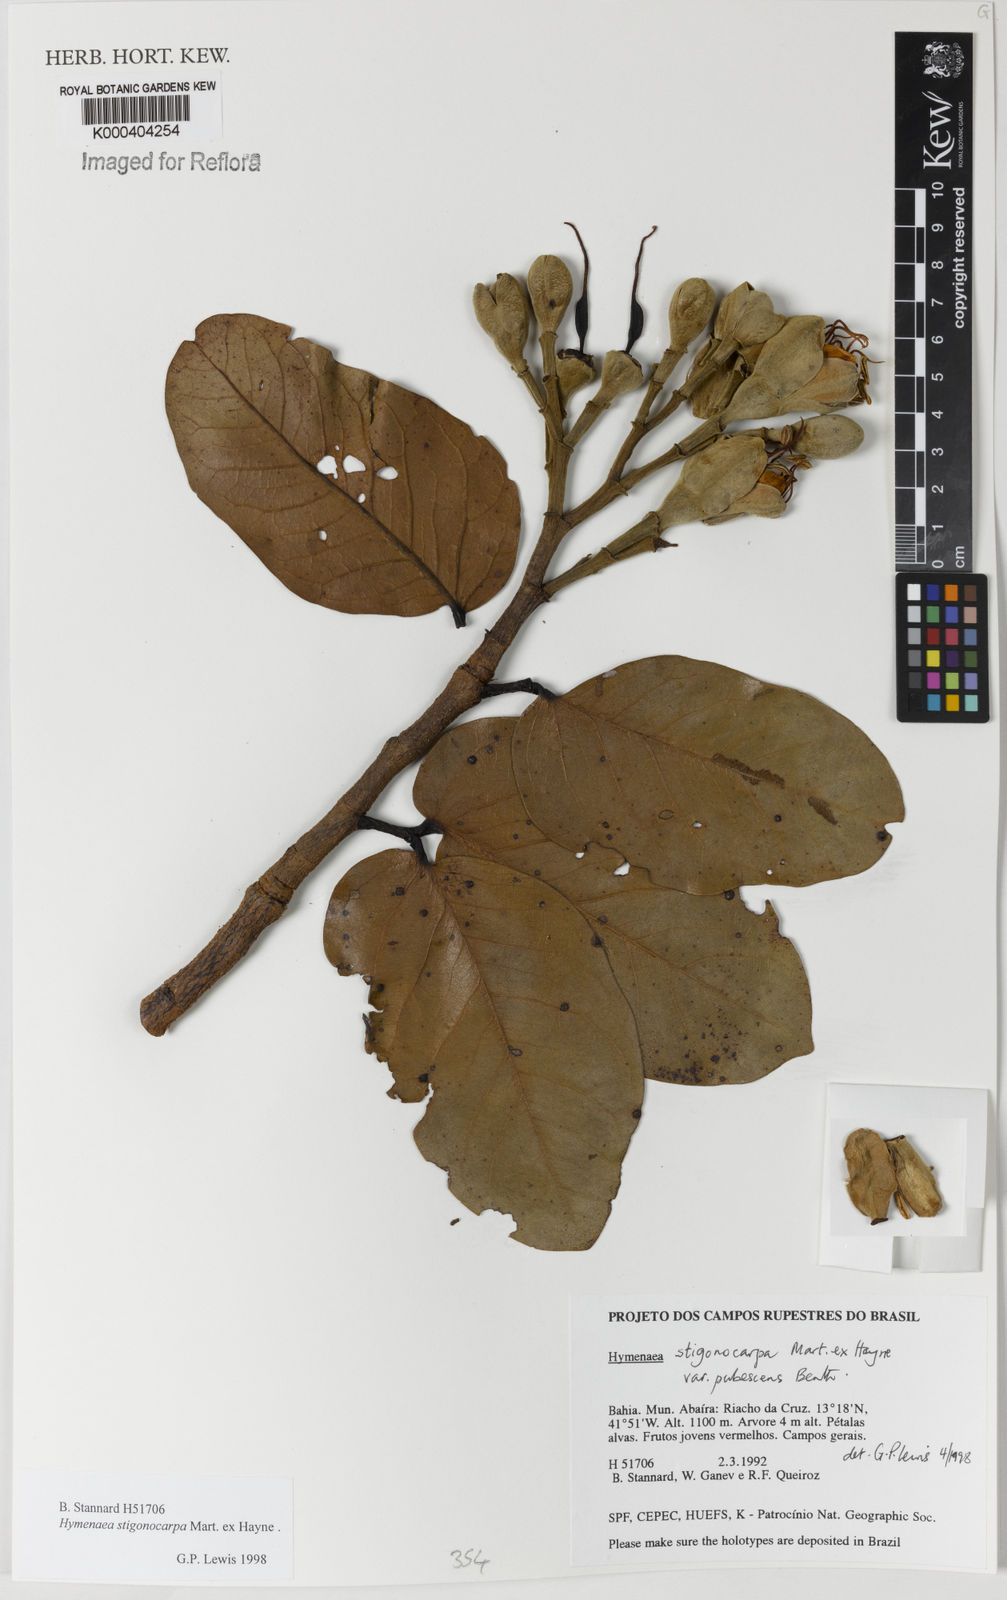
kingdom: Plantae
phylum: Tracheophyta
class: Magnoliopsida
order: Fabales
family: Fabaceae
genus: Hymenaea
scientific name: Hymenaea stigonocarpa
